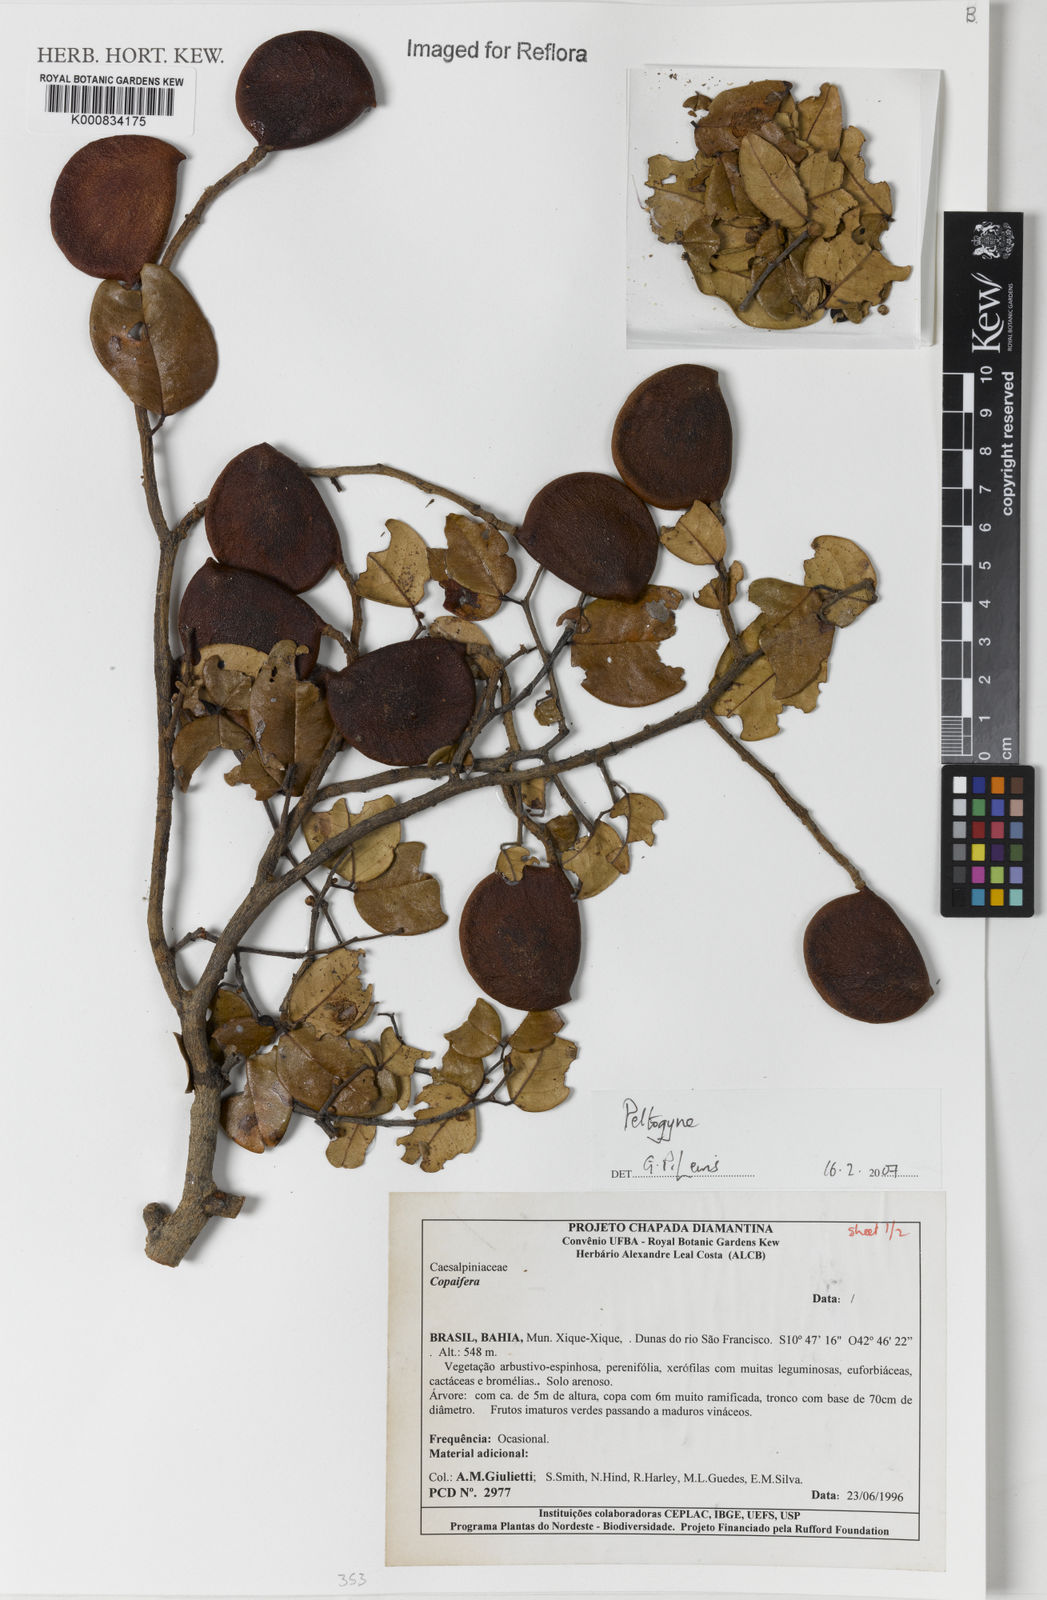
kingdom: Plantae
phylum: Tracheophyta
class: Magnoliopsida
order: Fabales
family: Fabaceae
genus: Peltogyne
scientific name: Peltogyne
